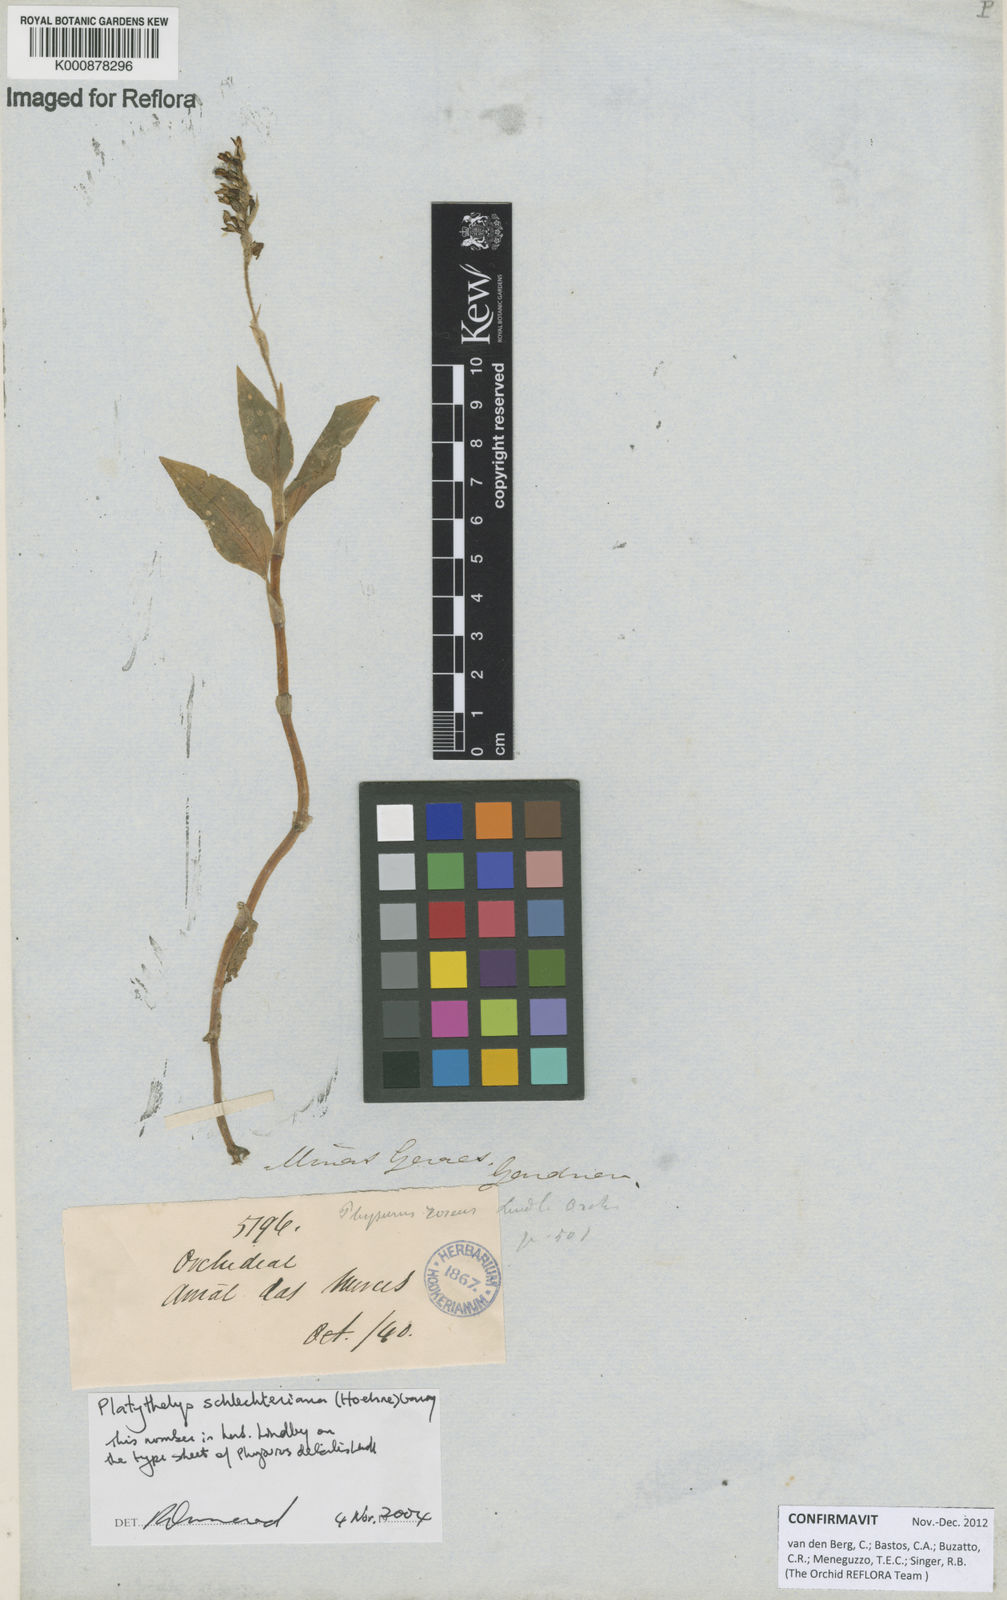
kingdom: Plantae
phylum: Tracheophyta
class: Liliopsida
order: Asparagales
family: Orchidaceae
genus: Aspidogyne
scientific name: Aspidogyne schlechteriana
